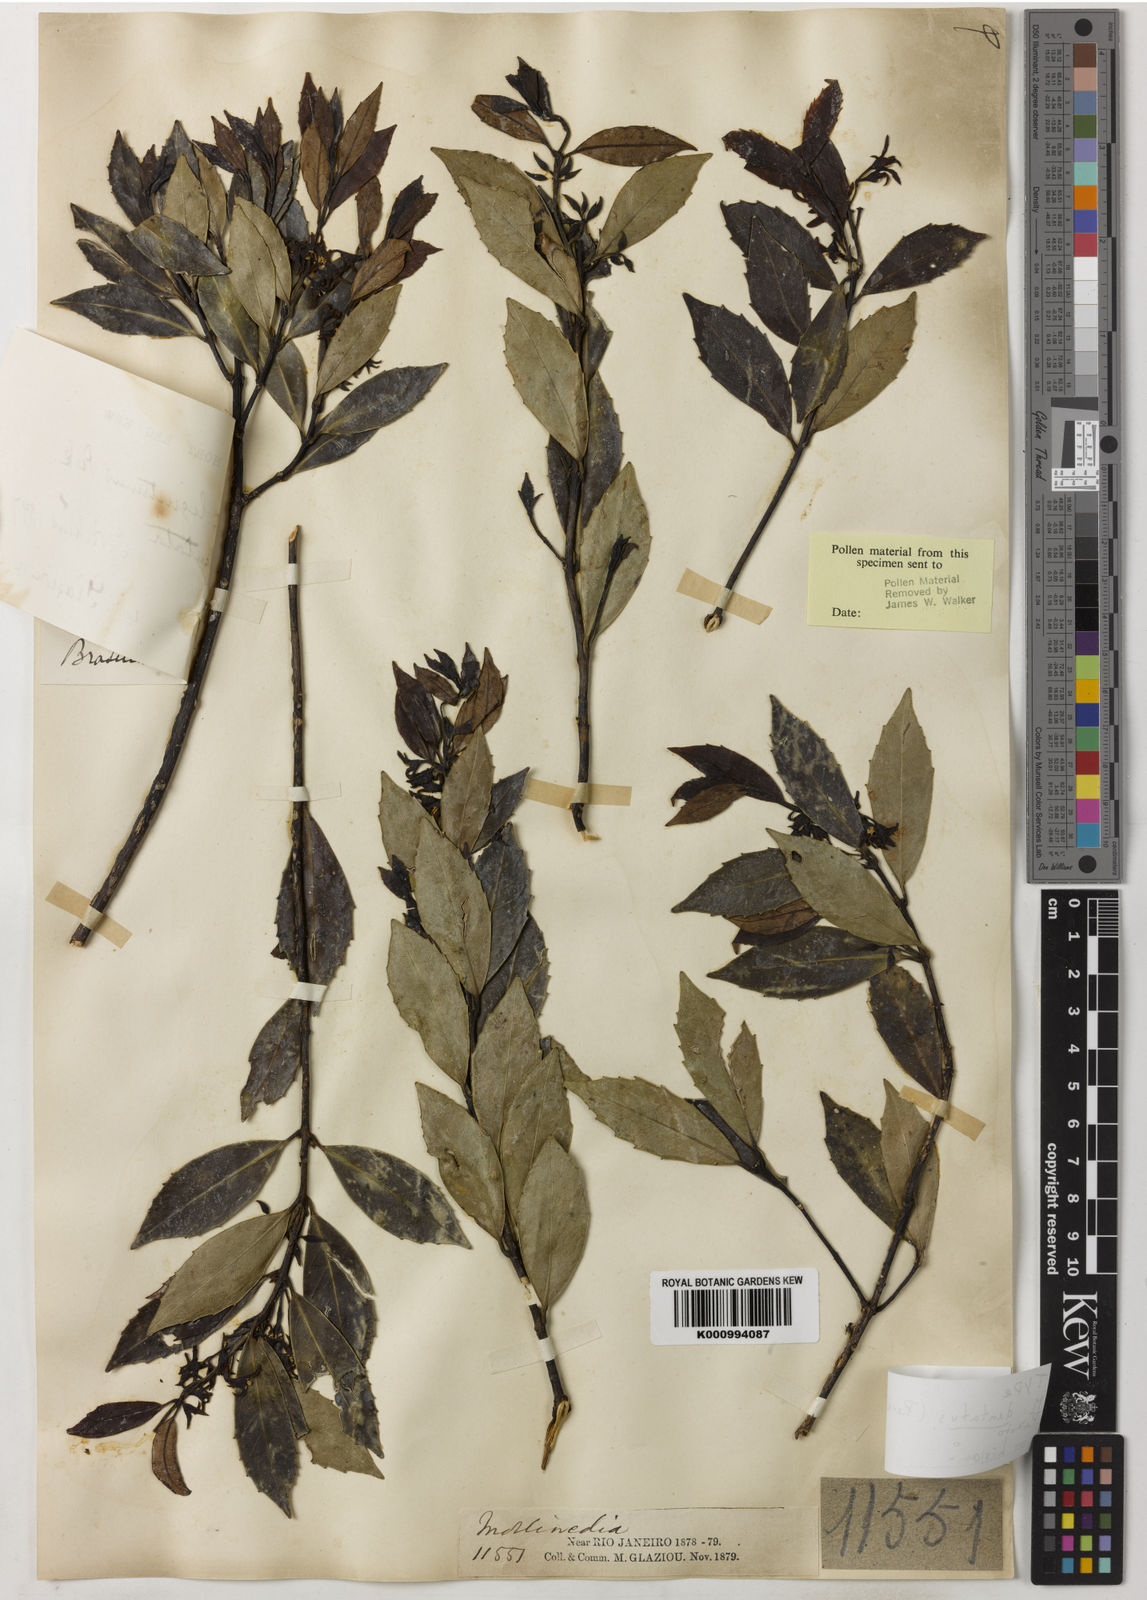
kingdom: Plantae
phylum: Tracheophyta
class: Magnoliopsida
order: Laurales
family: Monimiaceae
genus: Macropeplus
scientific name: Macropeplus dentatus
